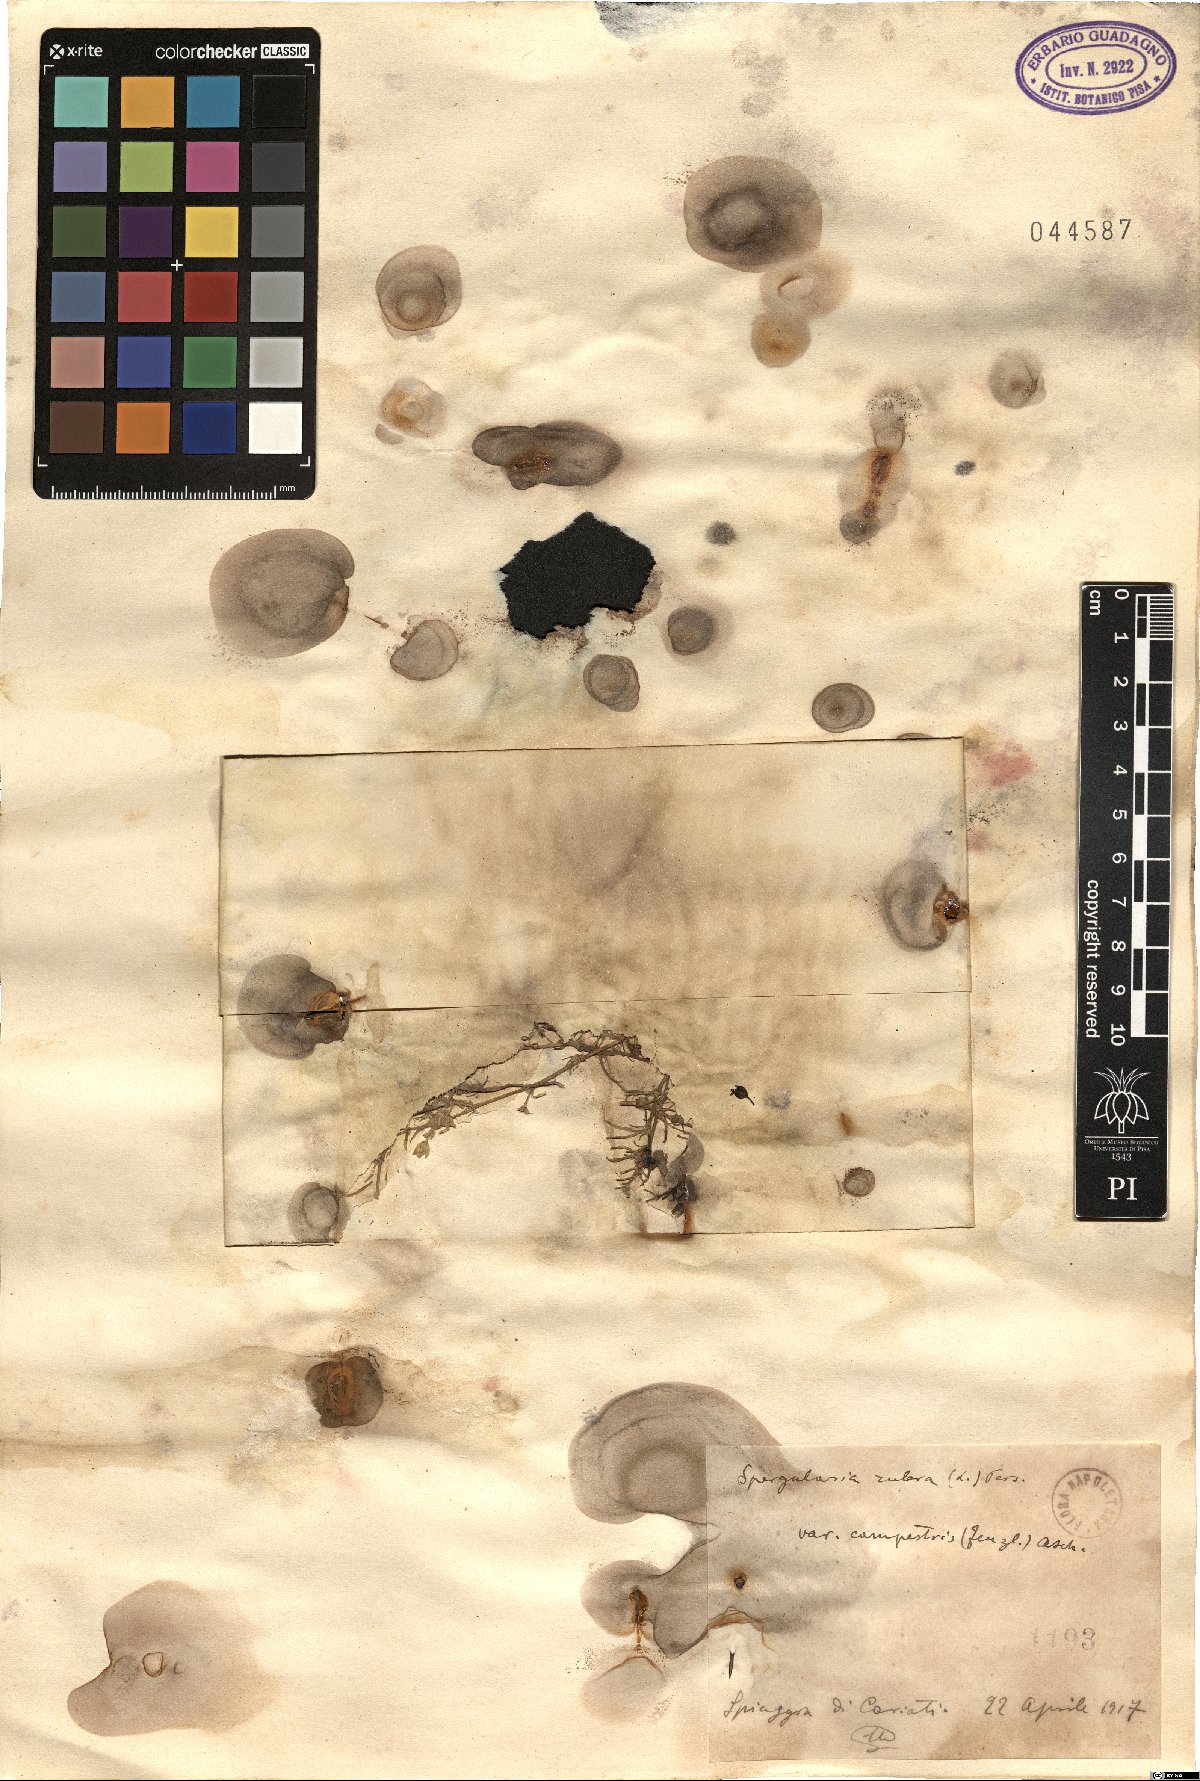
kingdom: Plantae
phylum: Tracheophyta
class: Magnoliopsida
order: Caryophyllales
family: Caryophyllaceae
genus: Spergularia
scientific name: Spergularia rubra
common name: Red sand-spurrey
